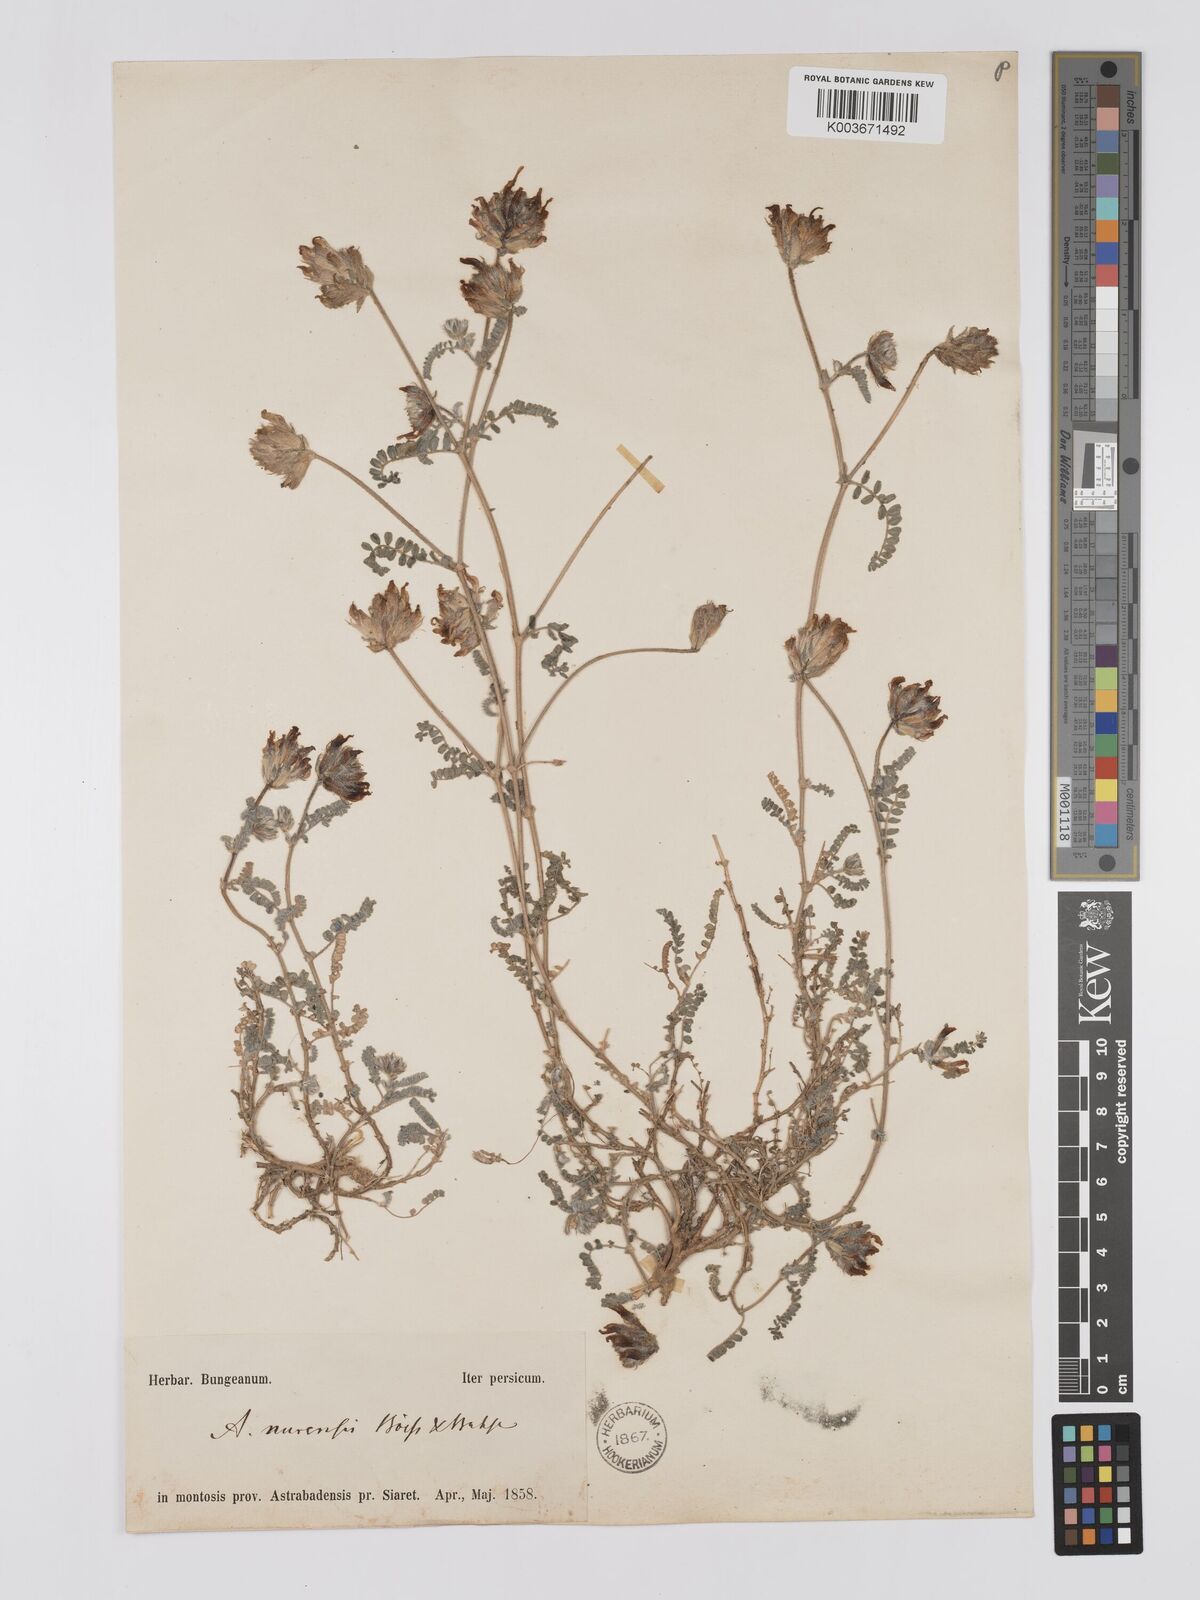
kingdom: Plantae
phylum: Tracheophyta
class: Magnoliopsida
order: Fabales
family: Fabaceae
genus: Astragalus
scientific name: Astragalus nurensis
